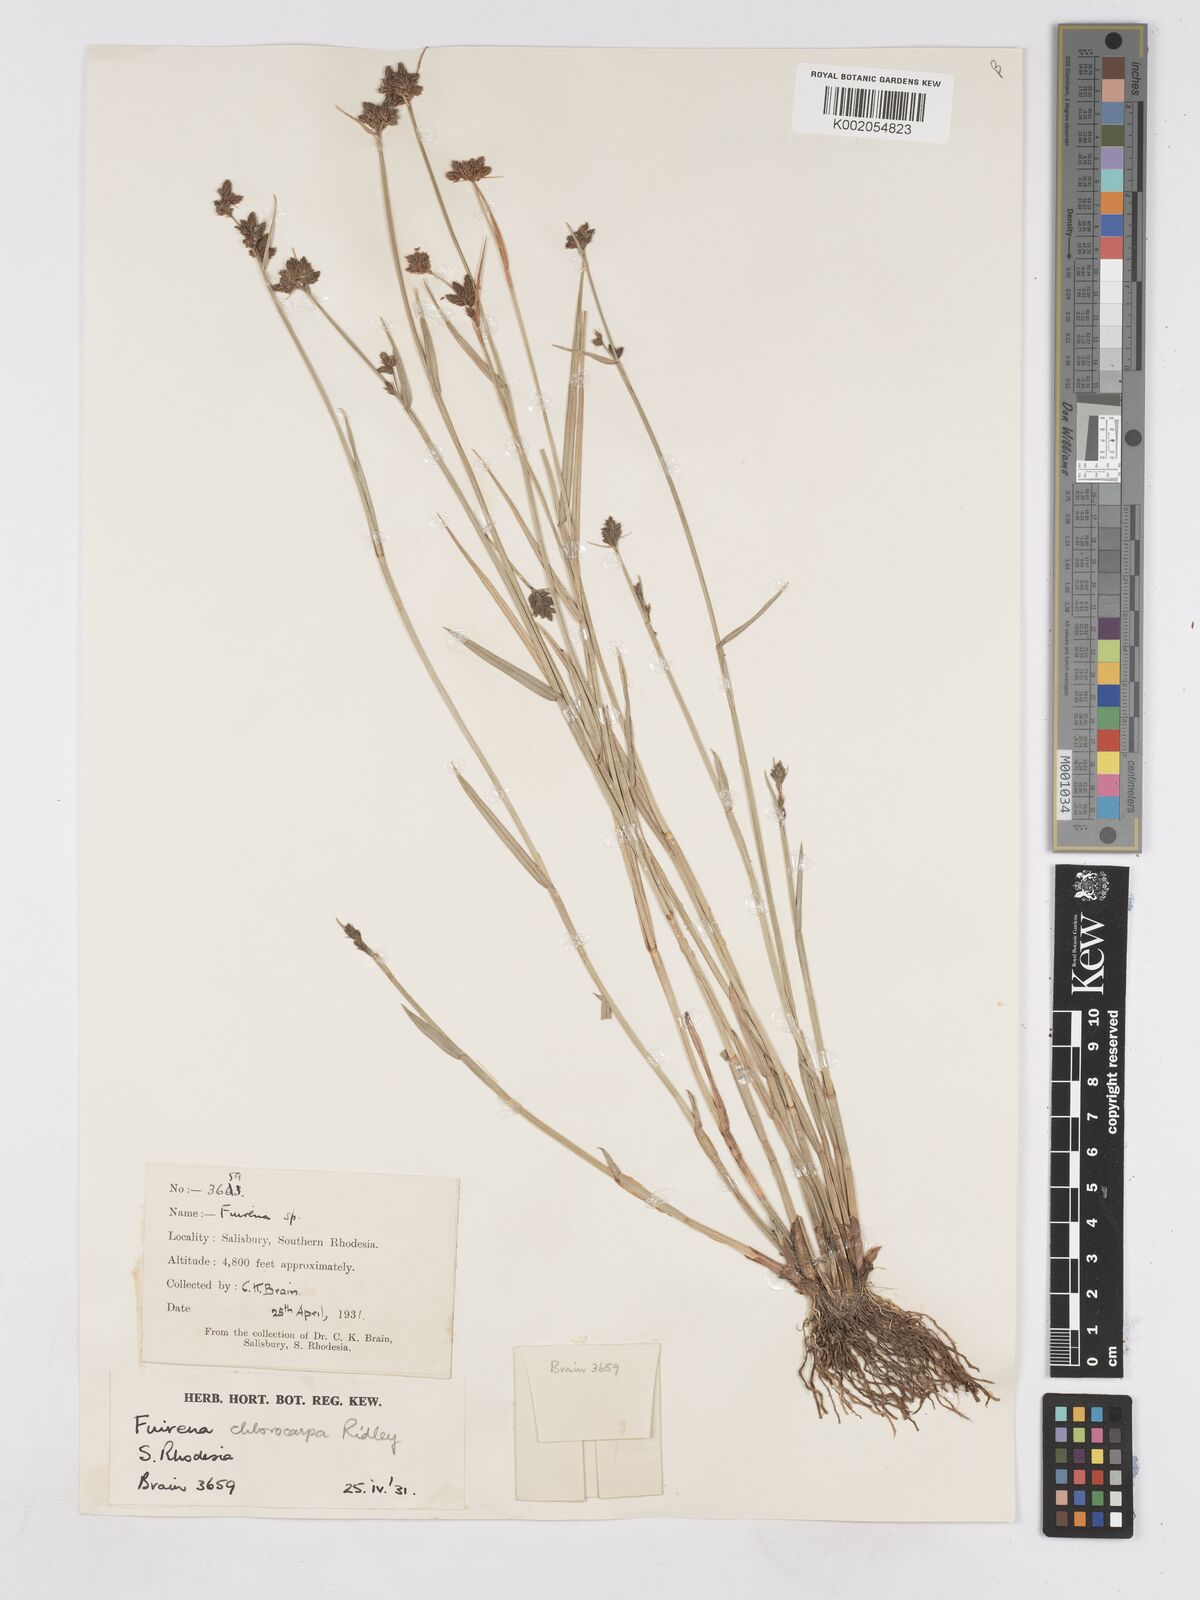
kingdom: Plantae
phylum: Tracheophyta
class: Liliopsida
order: Poales
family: Cyperaceae
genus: Fuirena
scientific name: Fuirena stricta
